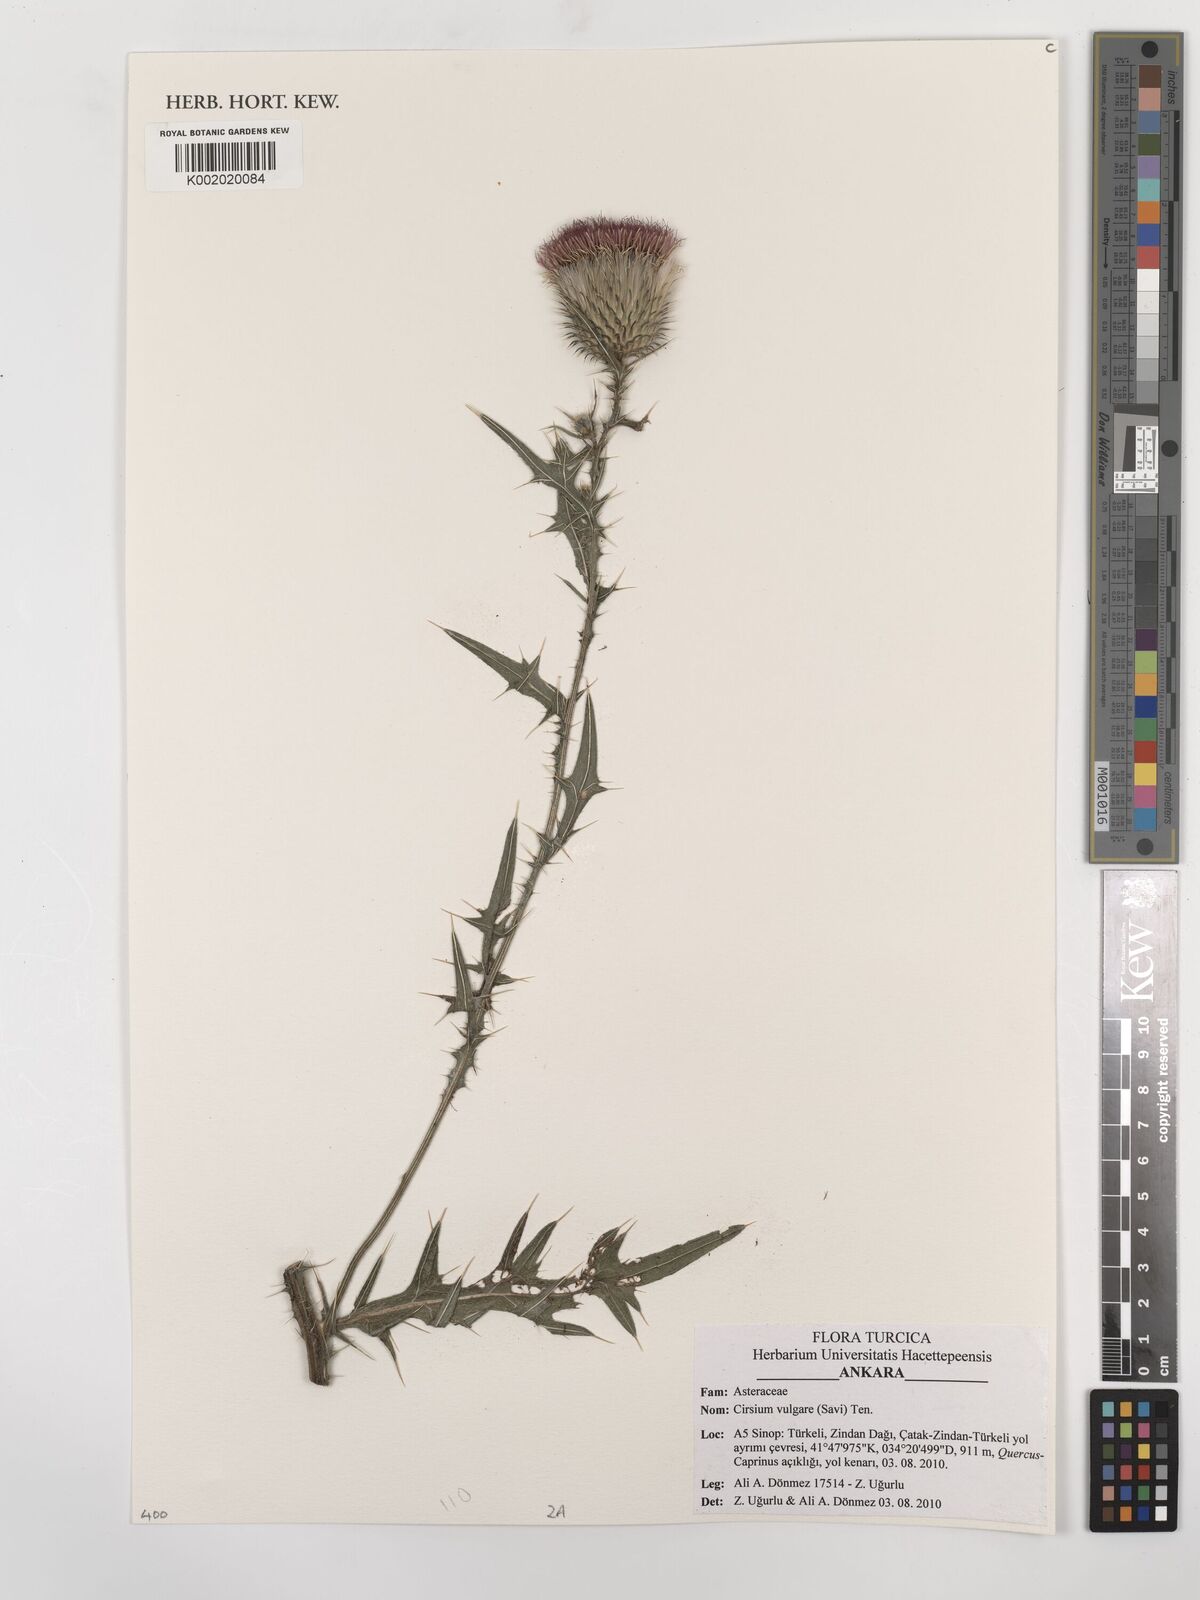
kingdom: Plantae
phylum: Tracheophyta
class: Magnoliopsida
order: Asterales
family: Asteraceae
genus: Cirsium
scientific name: Cirsium vulgare
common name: Bull thistle
